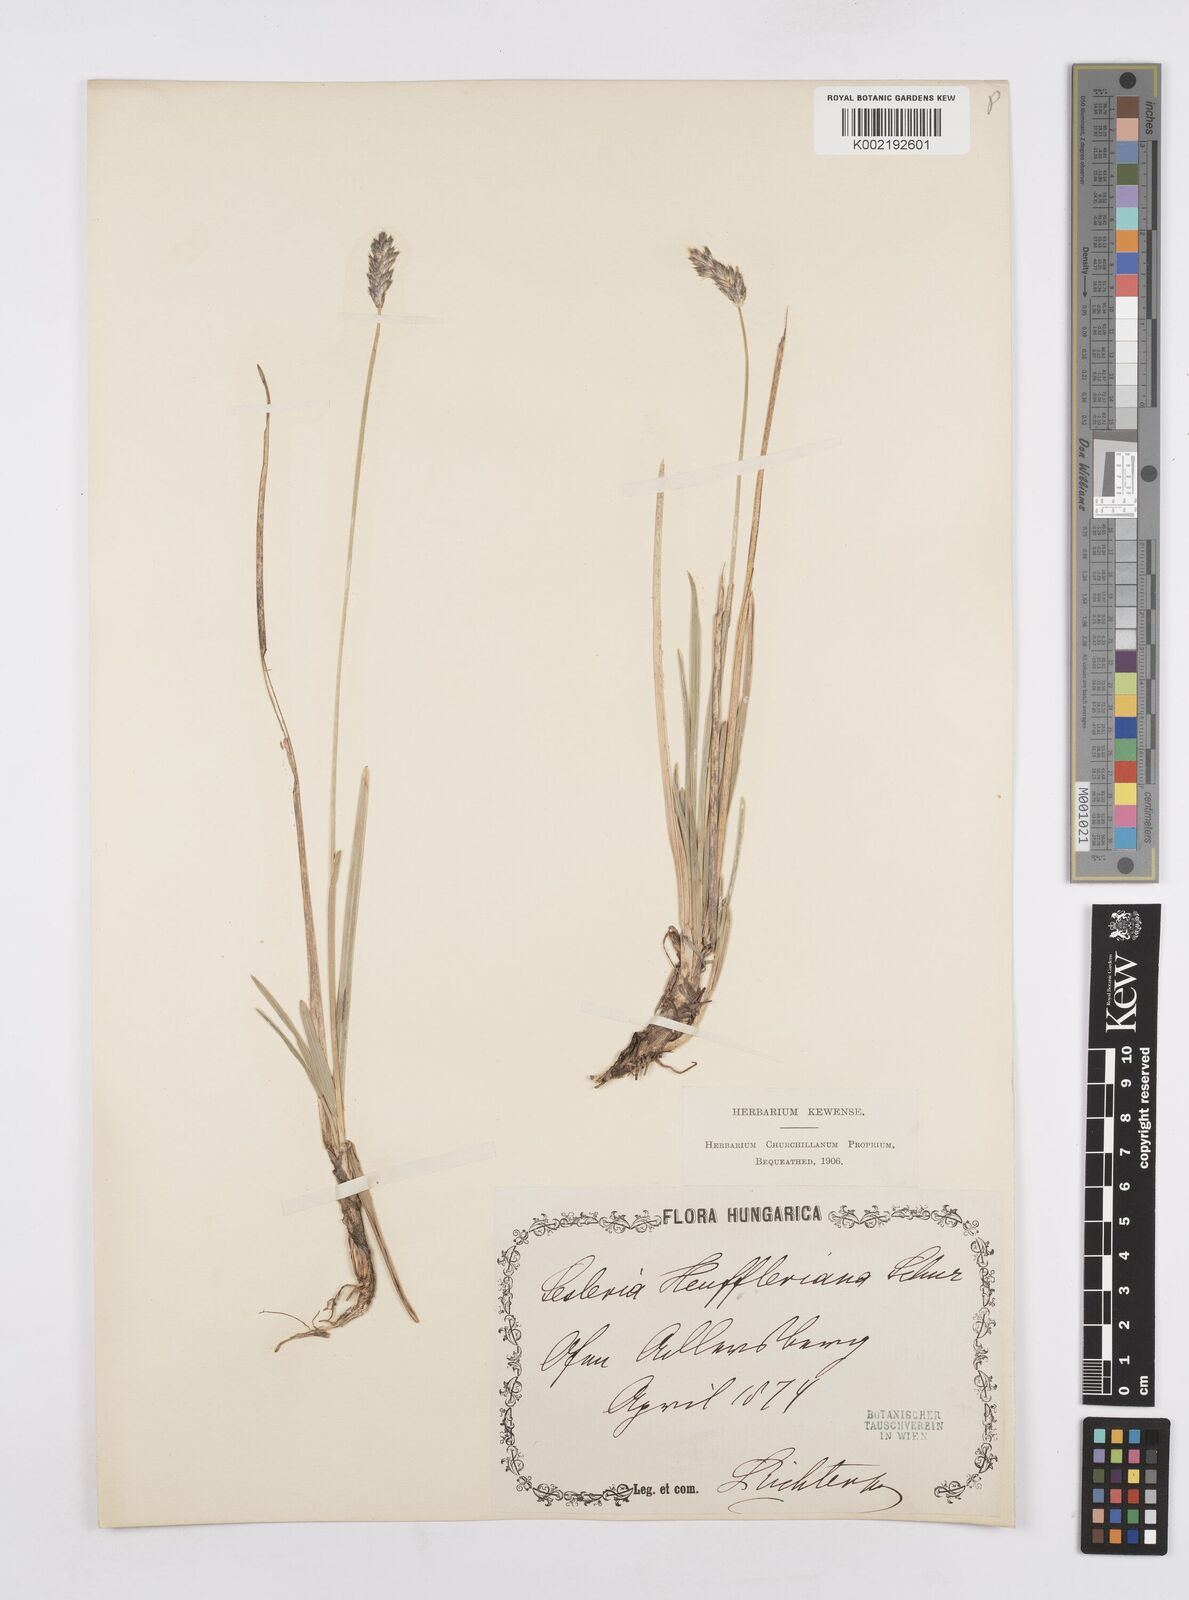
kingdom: Plantae
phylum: Tracheophyta
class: Liliopsida
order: Poales
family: Poaceae
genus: Sesleria
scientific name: Sesleria heufleriana
